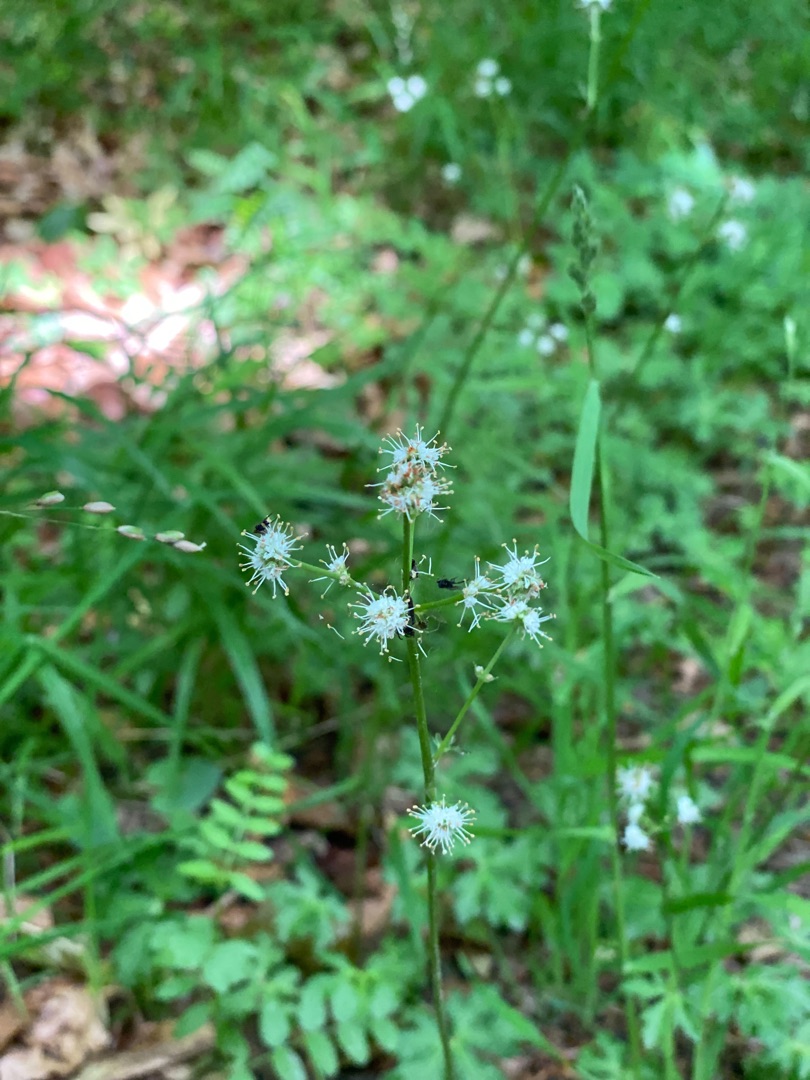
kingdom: Plantae
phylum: Tracheophyta
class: Magnoliopsida
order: Apiales
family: Apiaceae
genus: Sanicula
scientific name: Sanicula europaea
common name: Sanikel
